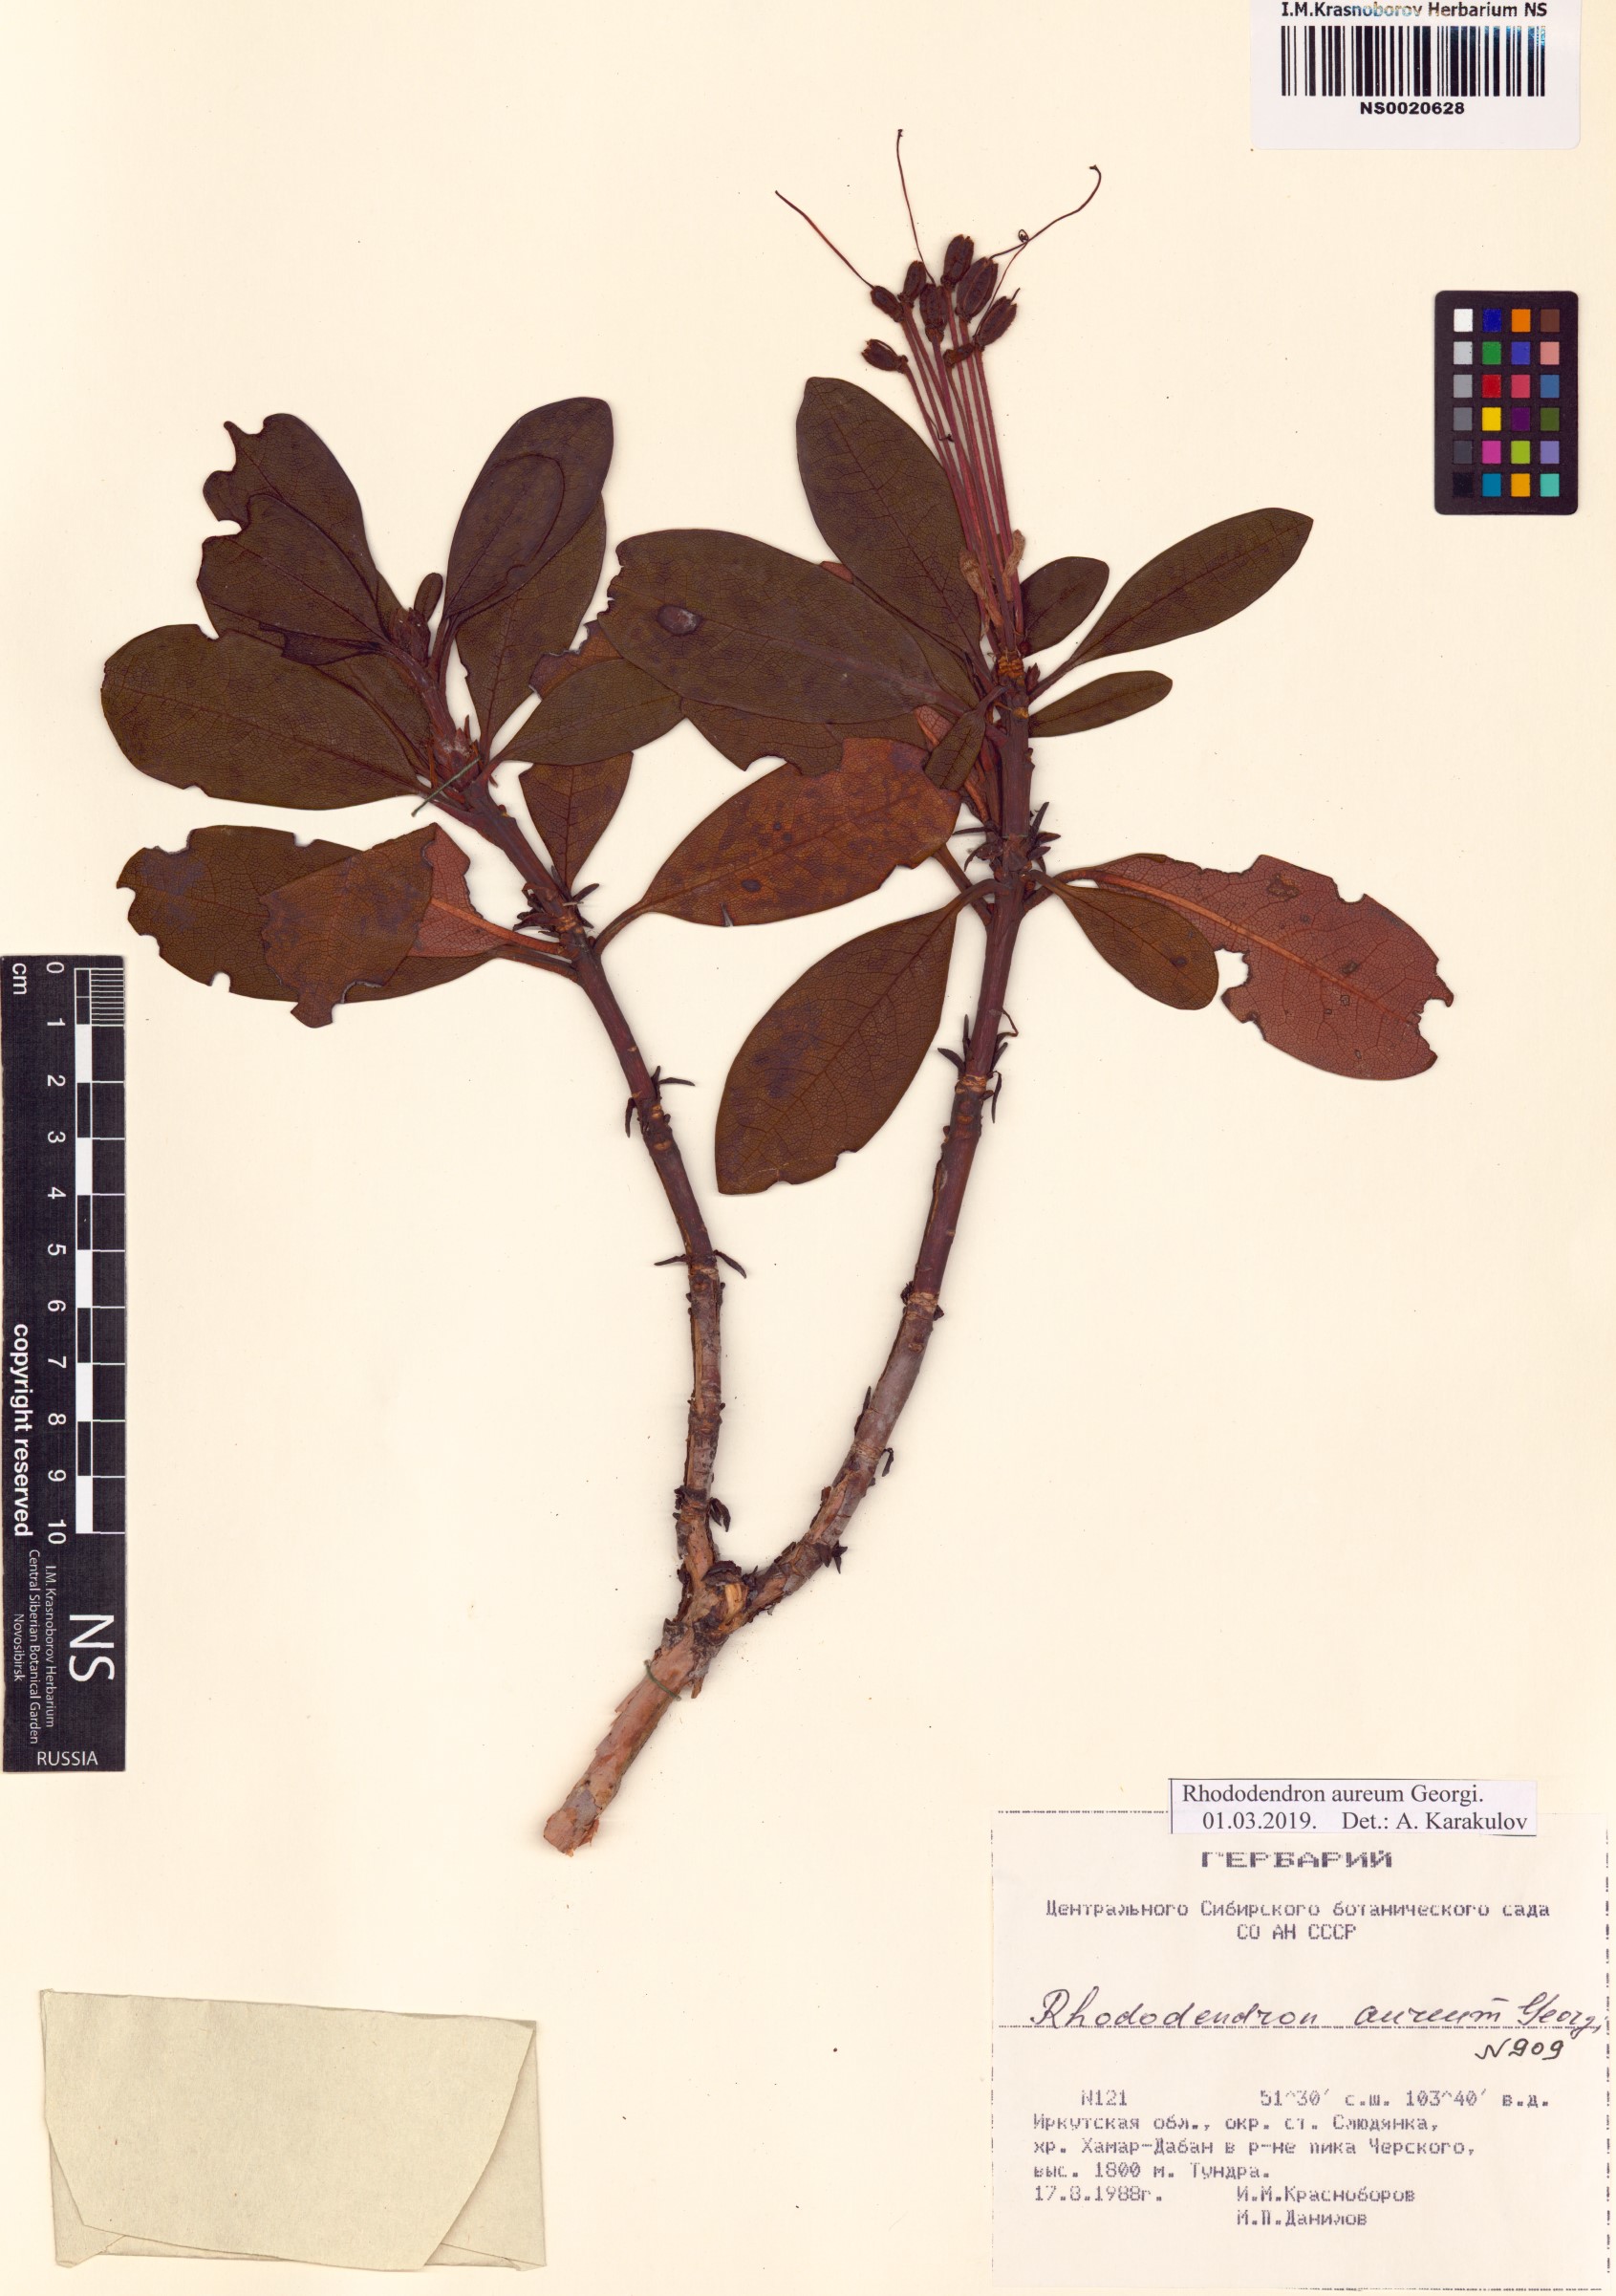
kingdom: Plantae
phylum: Tracheophyta
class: Magnoliopsida
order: Ericales
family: Ericaceae
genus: Rhododendron
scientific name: Rhododendron aureum
